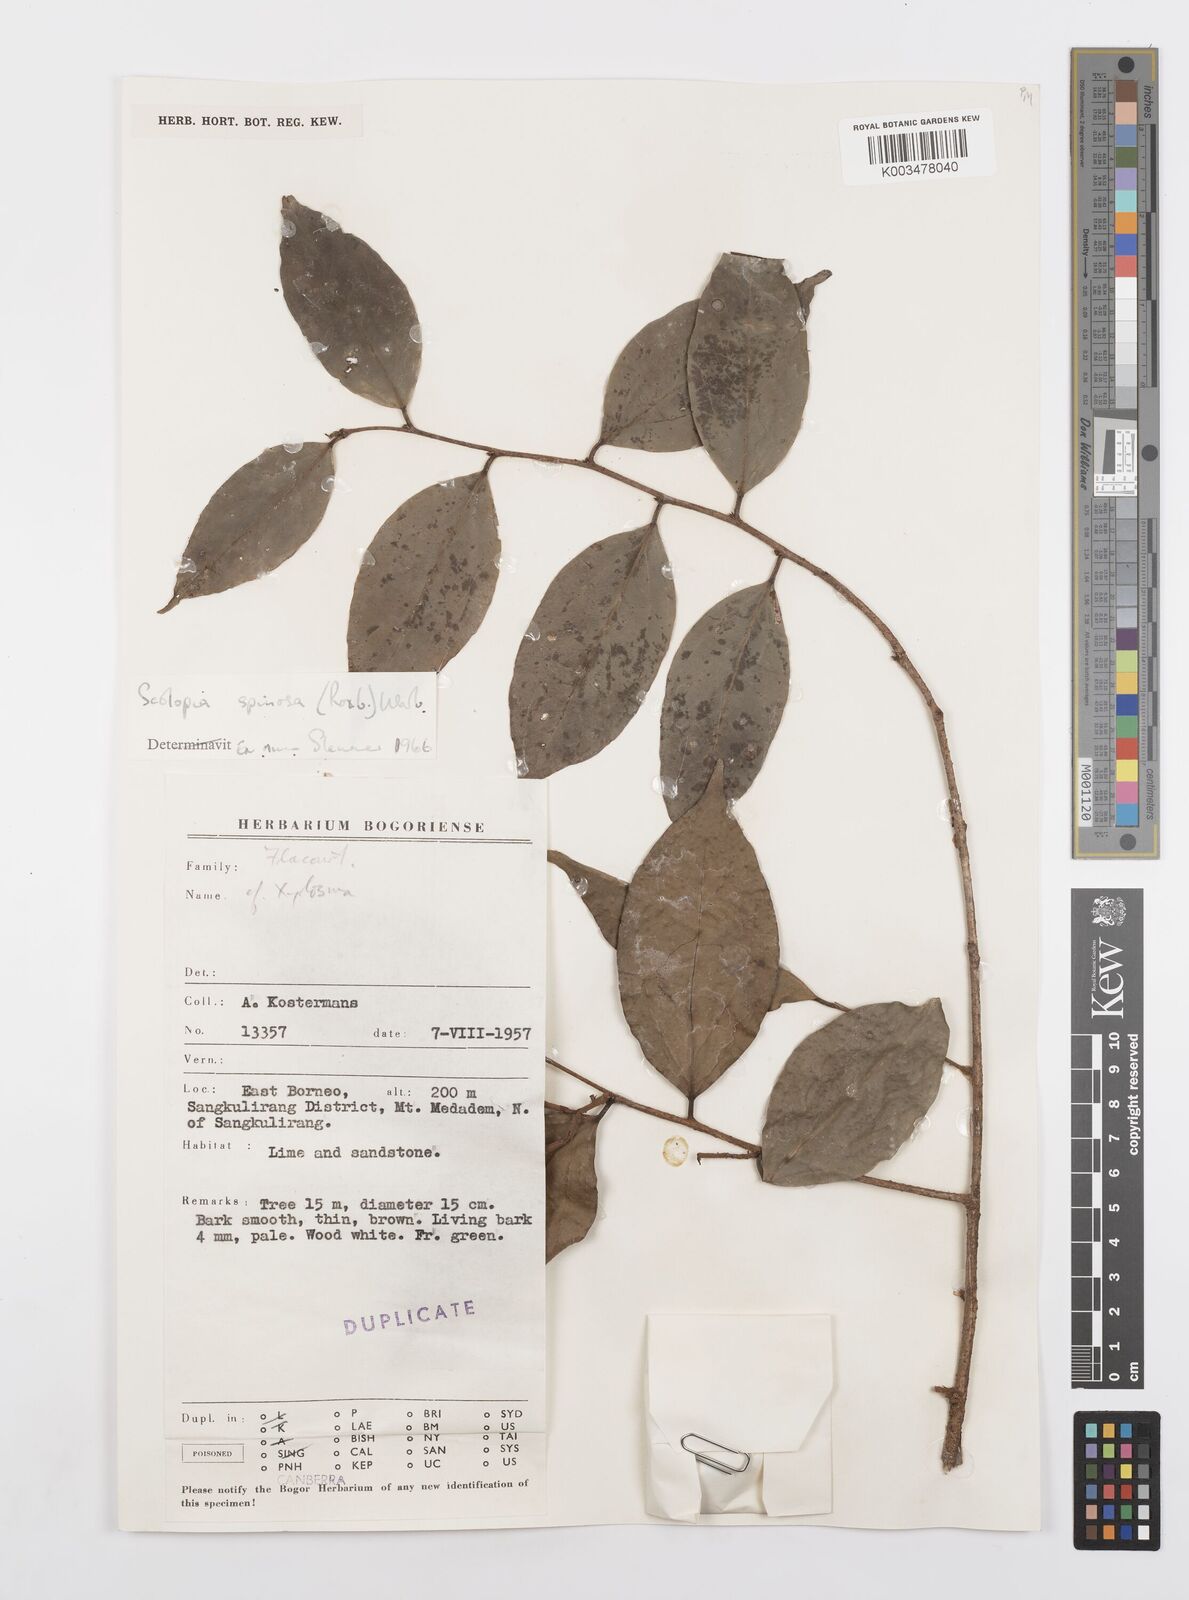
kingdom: Plantae
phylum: Tracheophyta
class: Magnoliopsida
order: Malpighiales
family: Salicaceae
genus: Scolopia
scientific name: Scolopia spinosa
